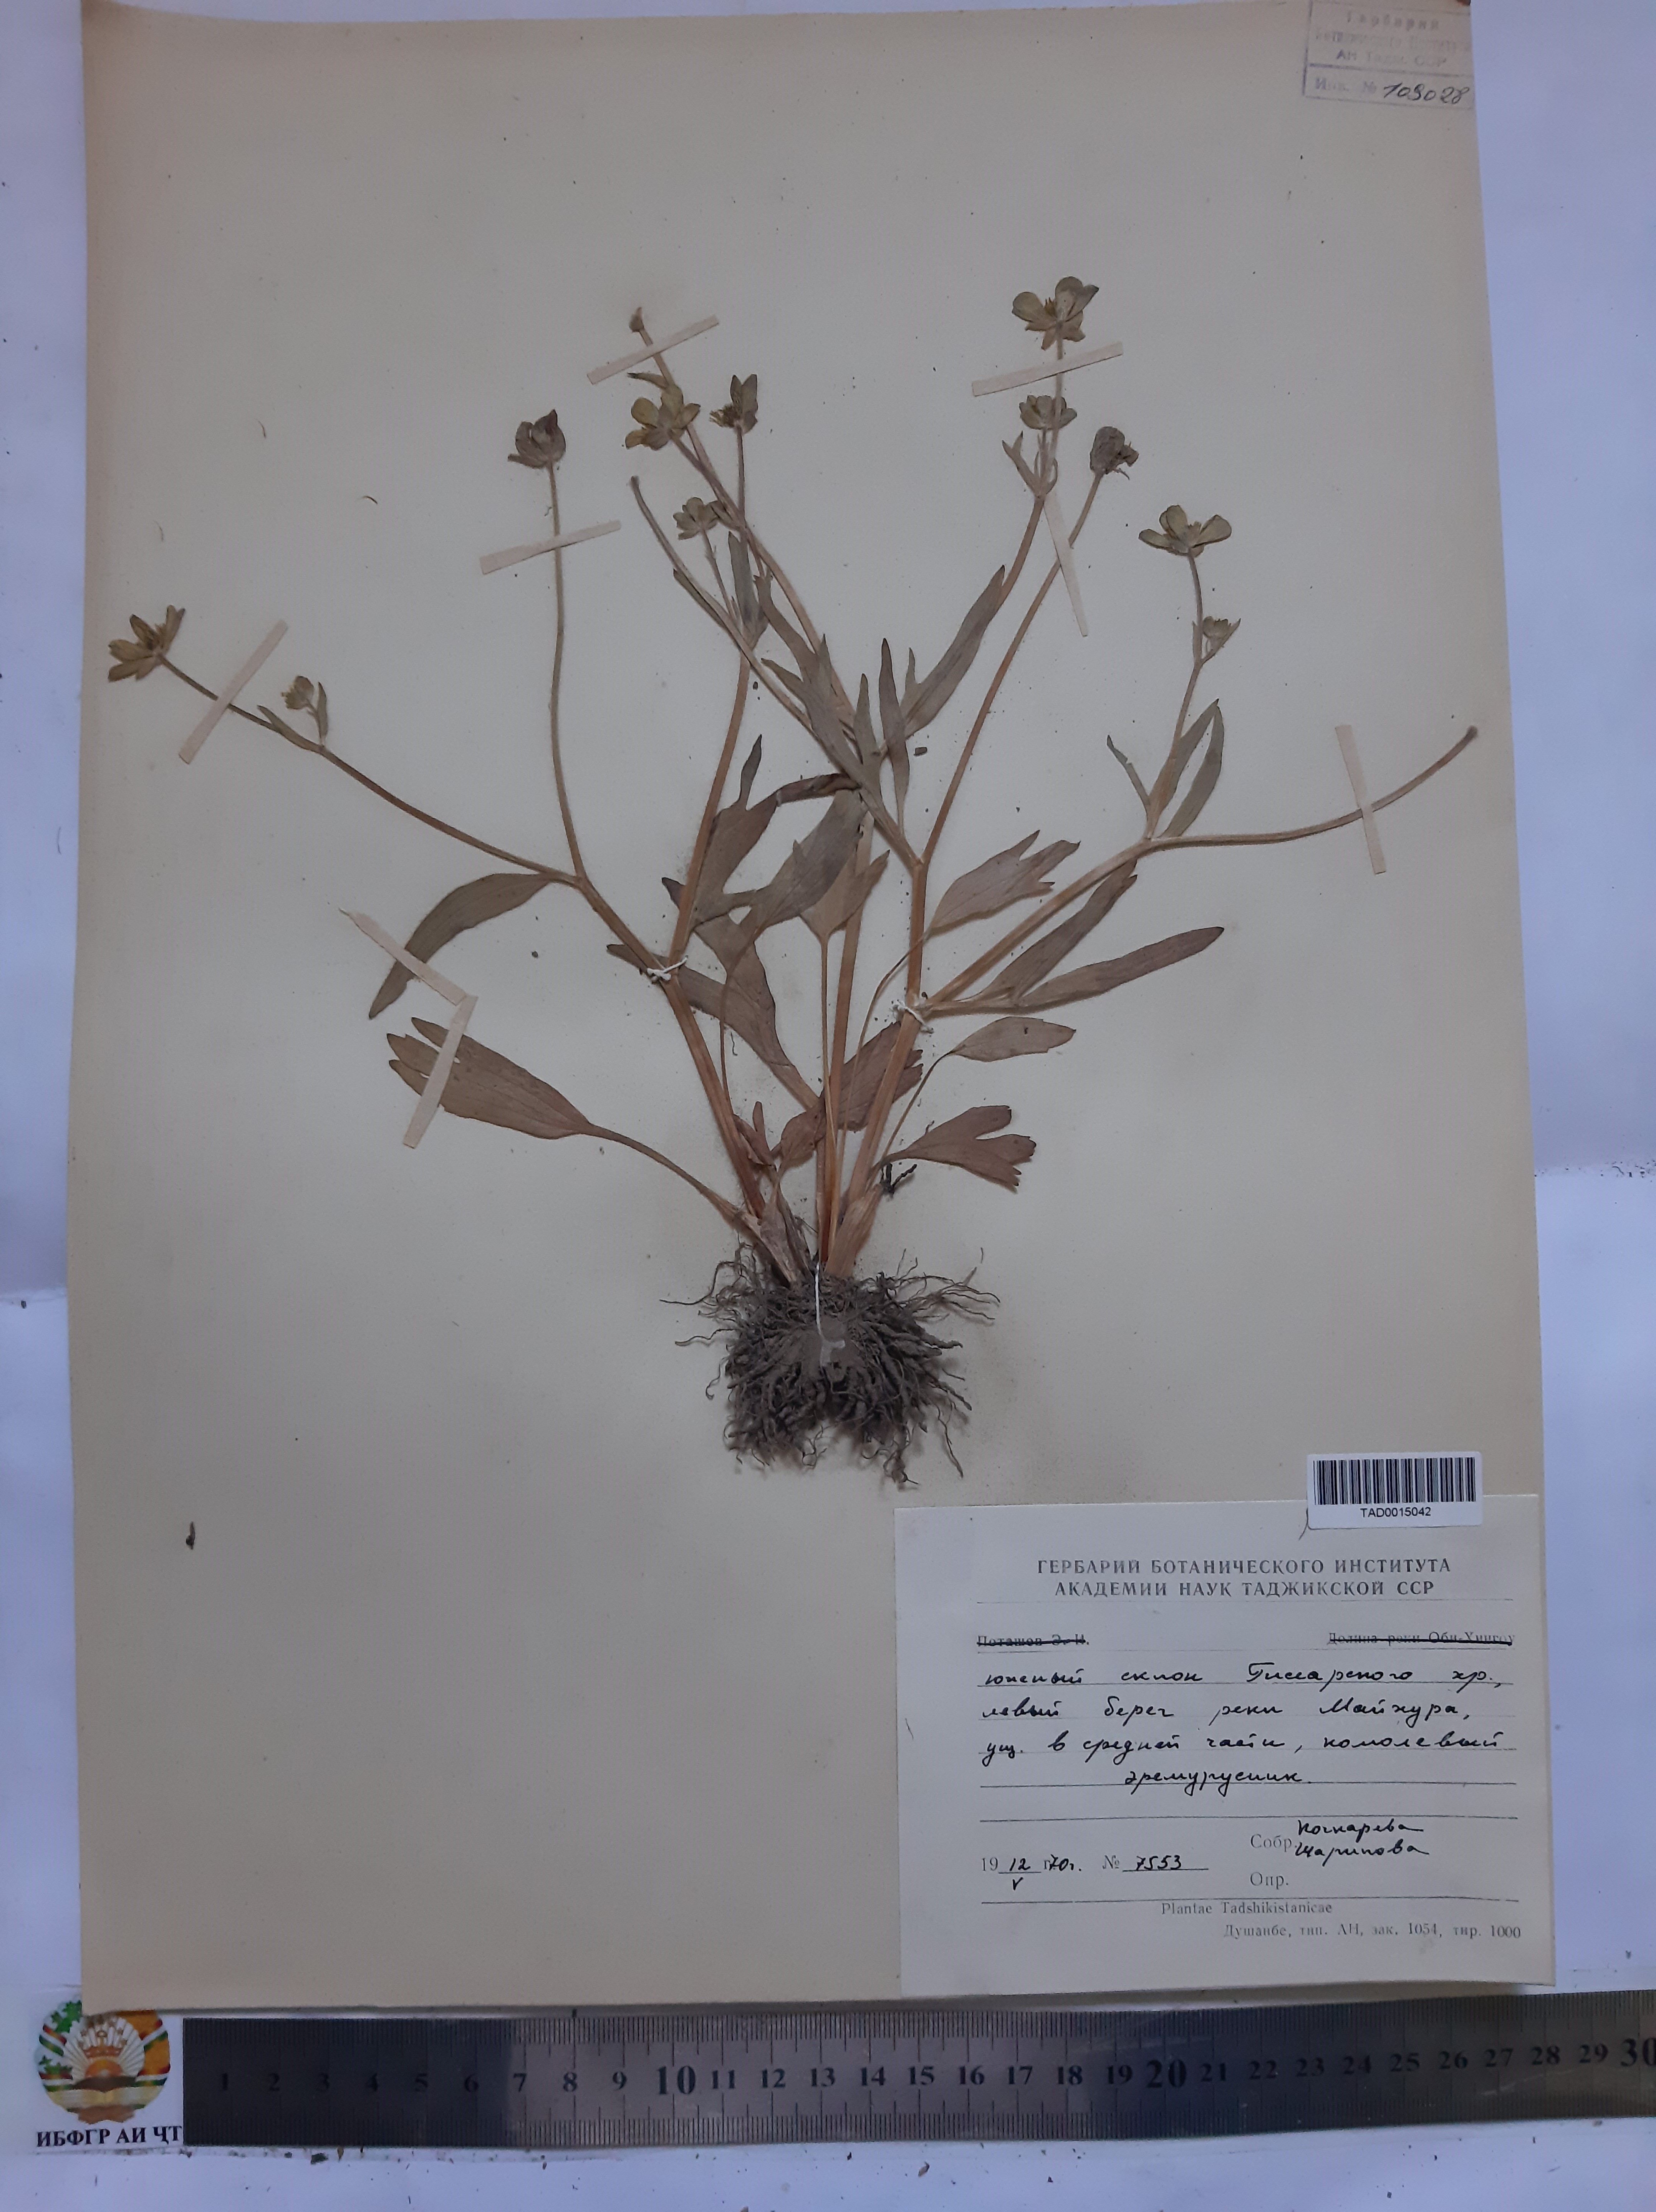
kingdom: Plantae
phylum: Tracheophyta
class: Magnoliopsida
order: Ranunculales
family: Ranunculaceae
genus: Ranunculus
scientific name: Ranunculus paucidentatus
